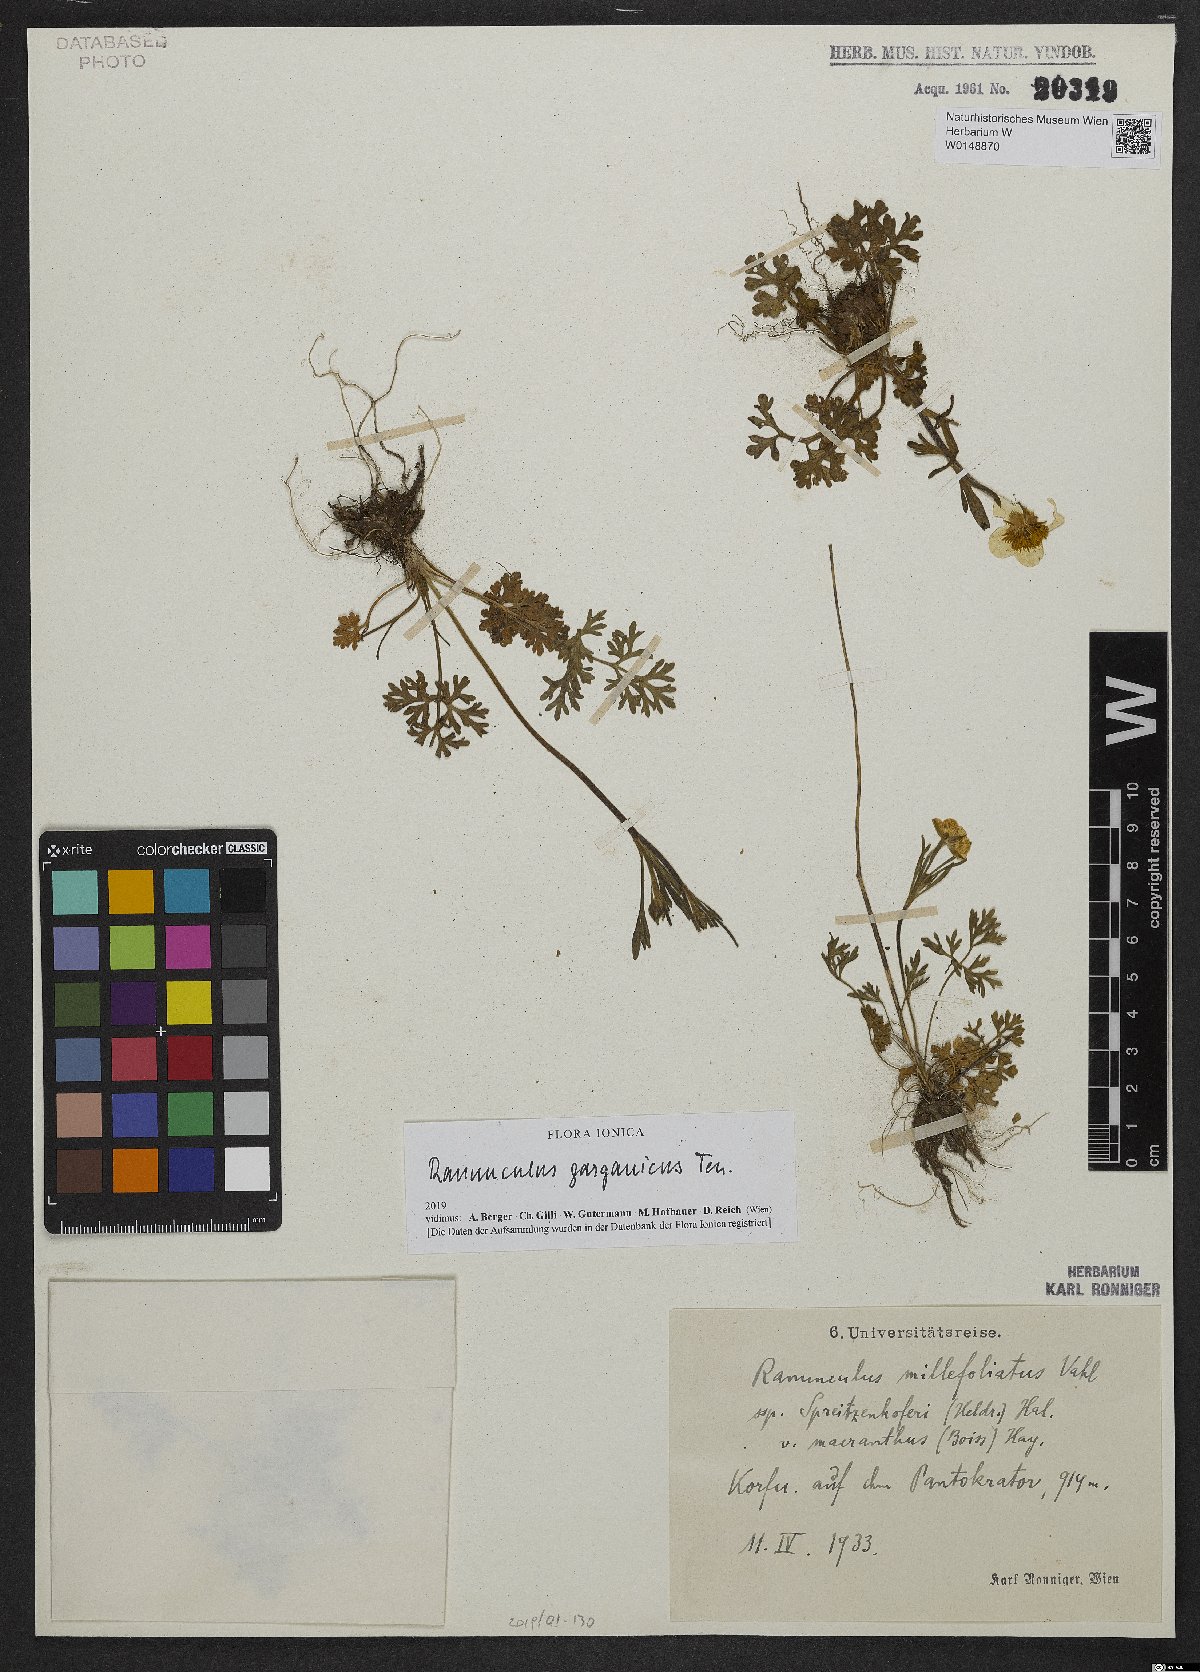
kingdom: Plantae
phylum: Tracheophyta
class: Magnoliopsida
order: Ranunculales
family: Ranunculaceae
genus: Ranunculus
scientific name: Ranunculus garganicus
